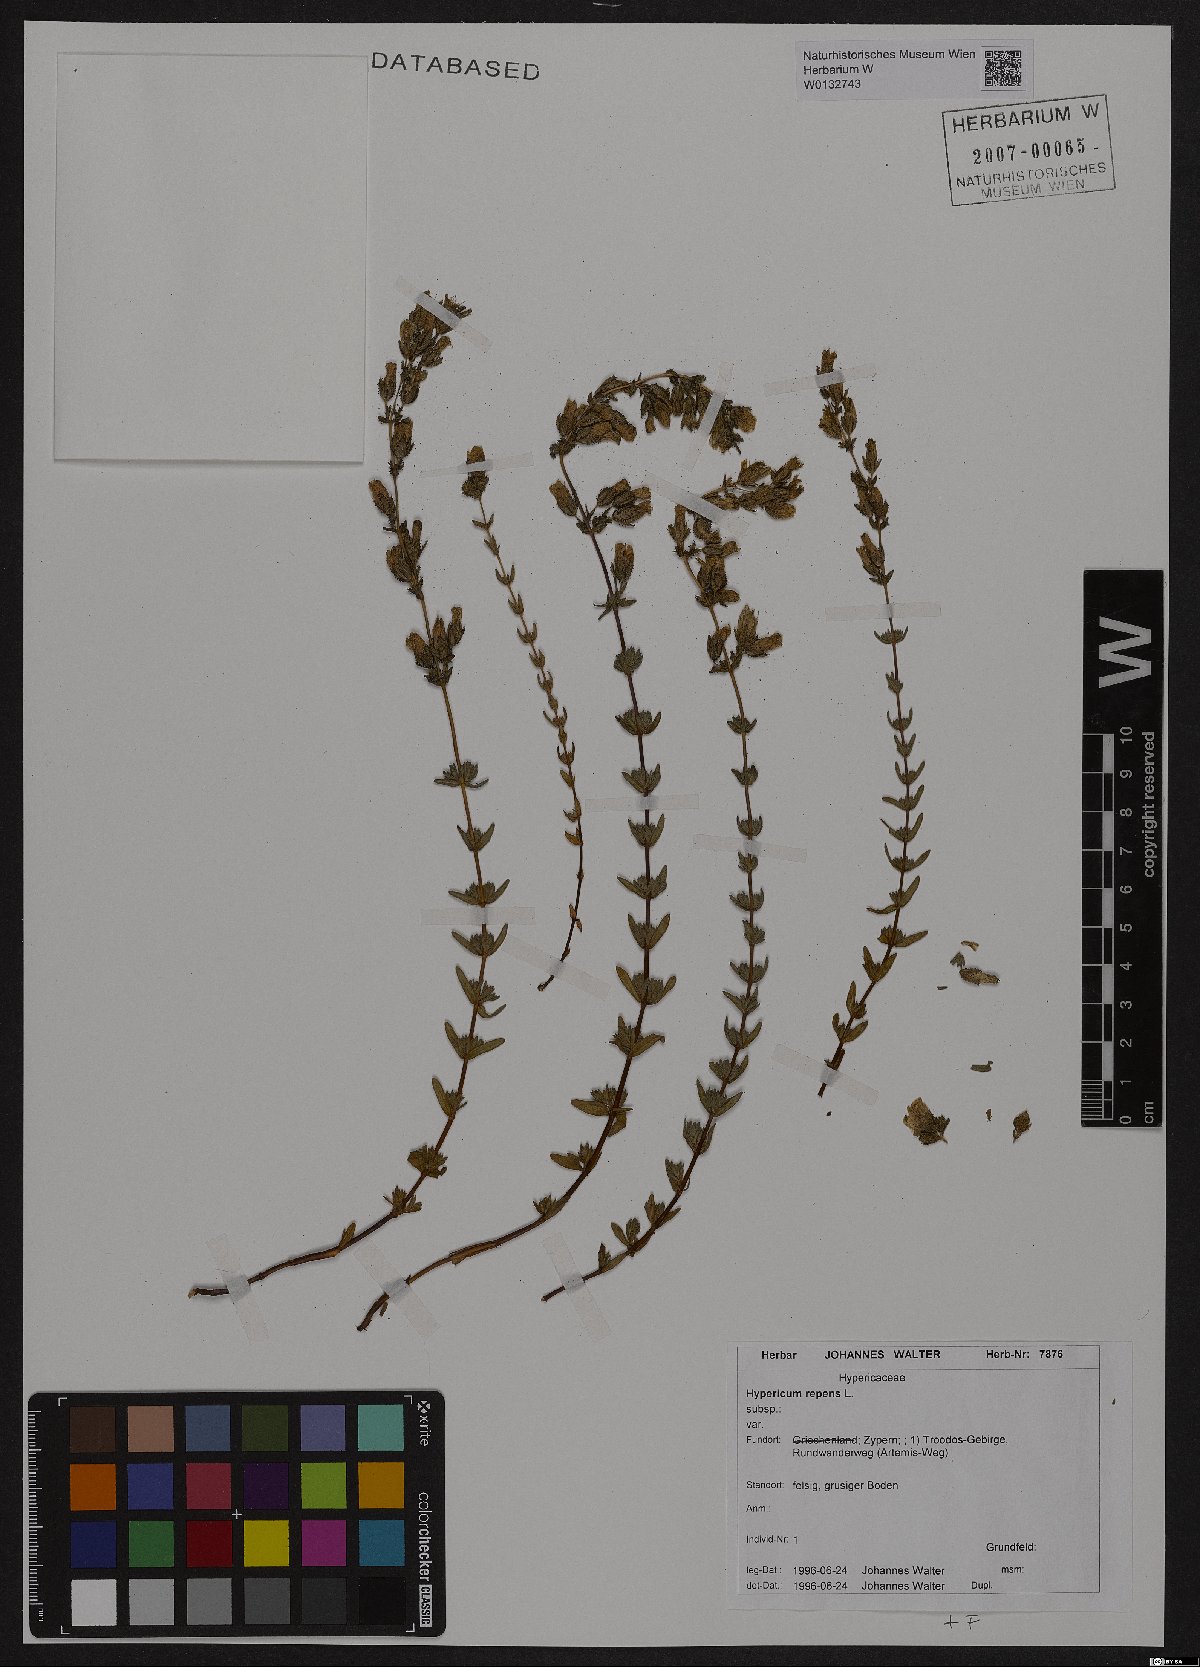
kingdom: Plantae
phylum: Tracheophyta
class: Magnoliopsida
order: Malpighiales
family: Hypericaceae
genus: Hypericum
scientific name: Hypericum repens
